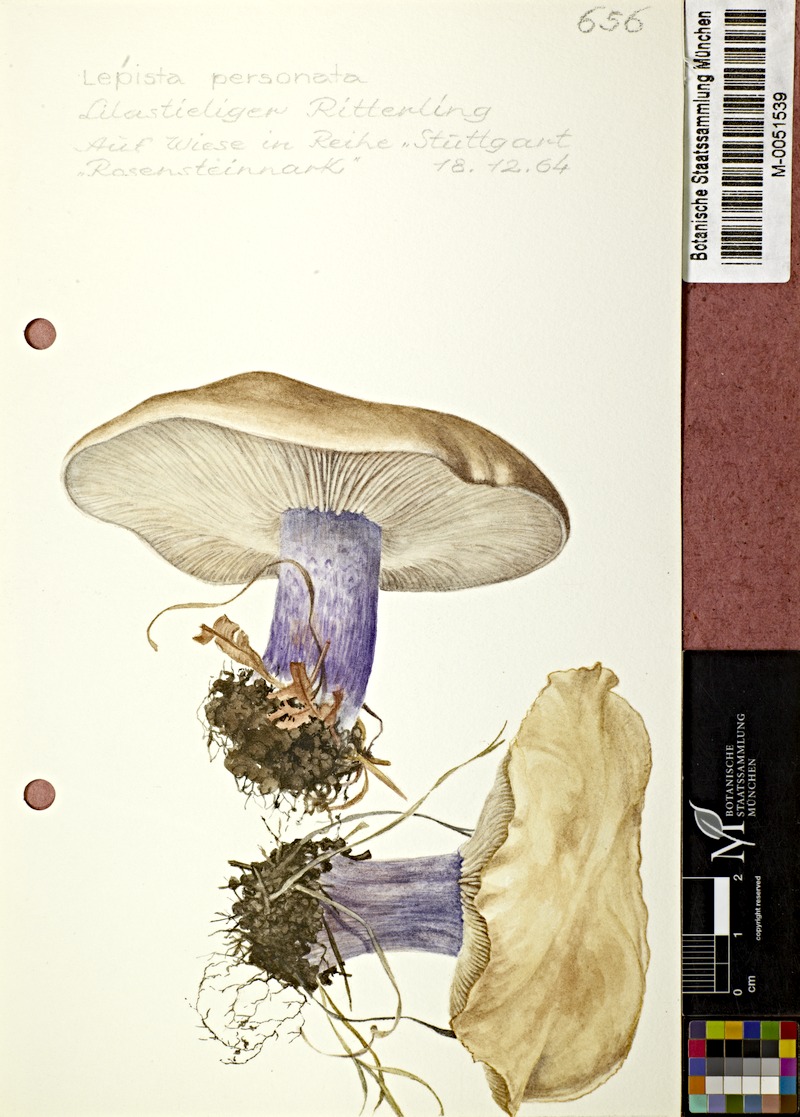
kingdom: Fungi
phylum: Basidiomycota
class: Agaricomycetes
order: Agaricales
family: Tricholomataceae
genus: Lepista
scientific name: Lepista personata
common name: Field blewit
